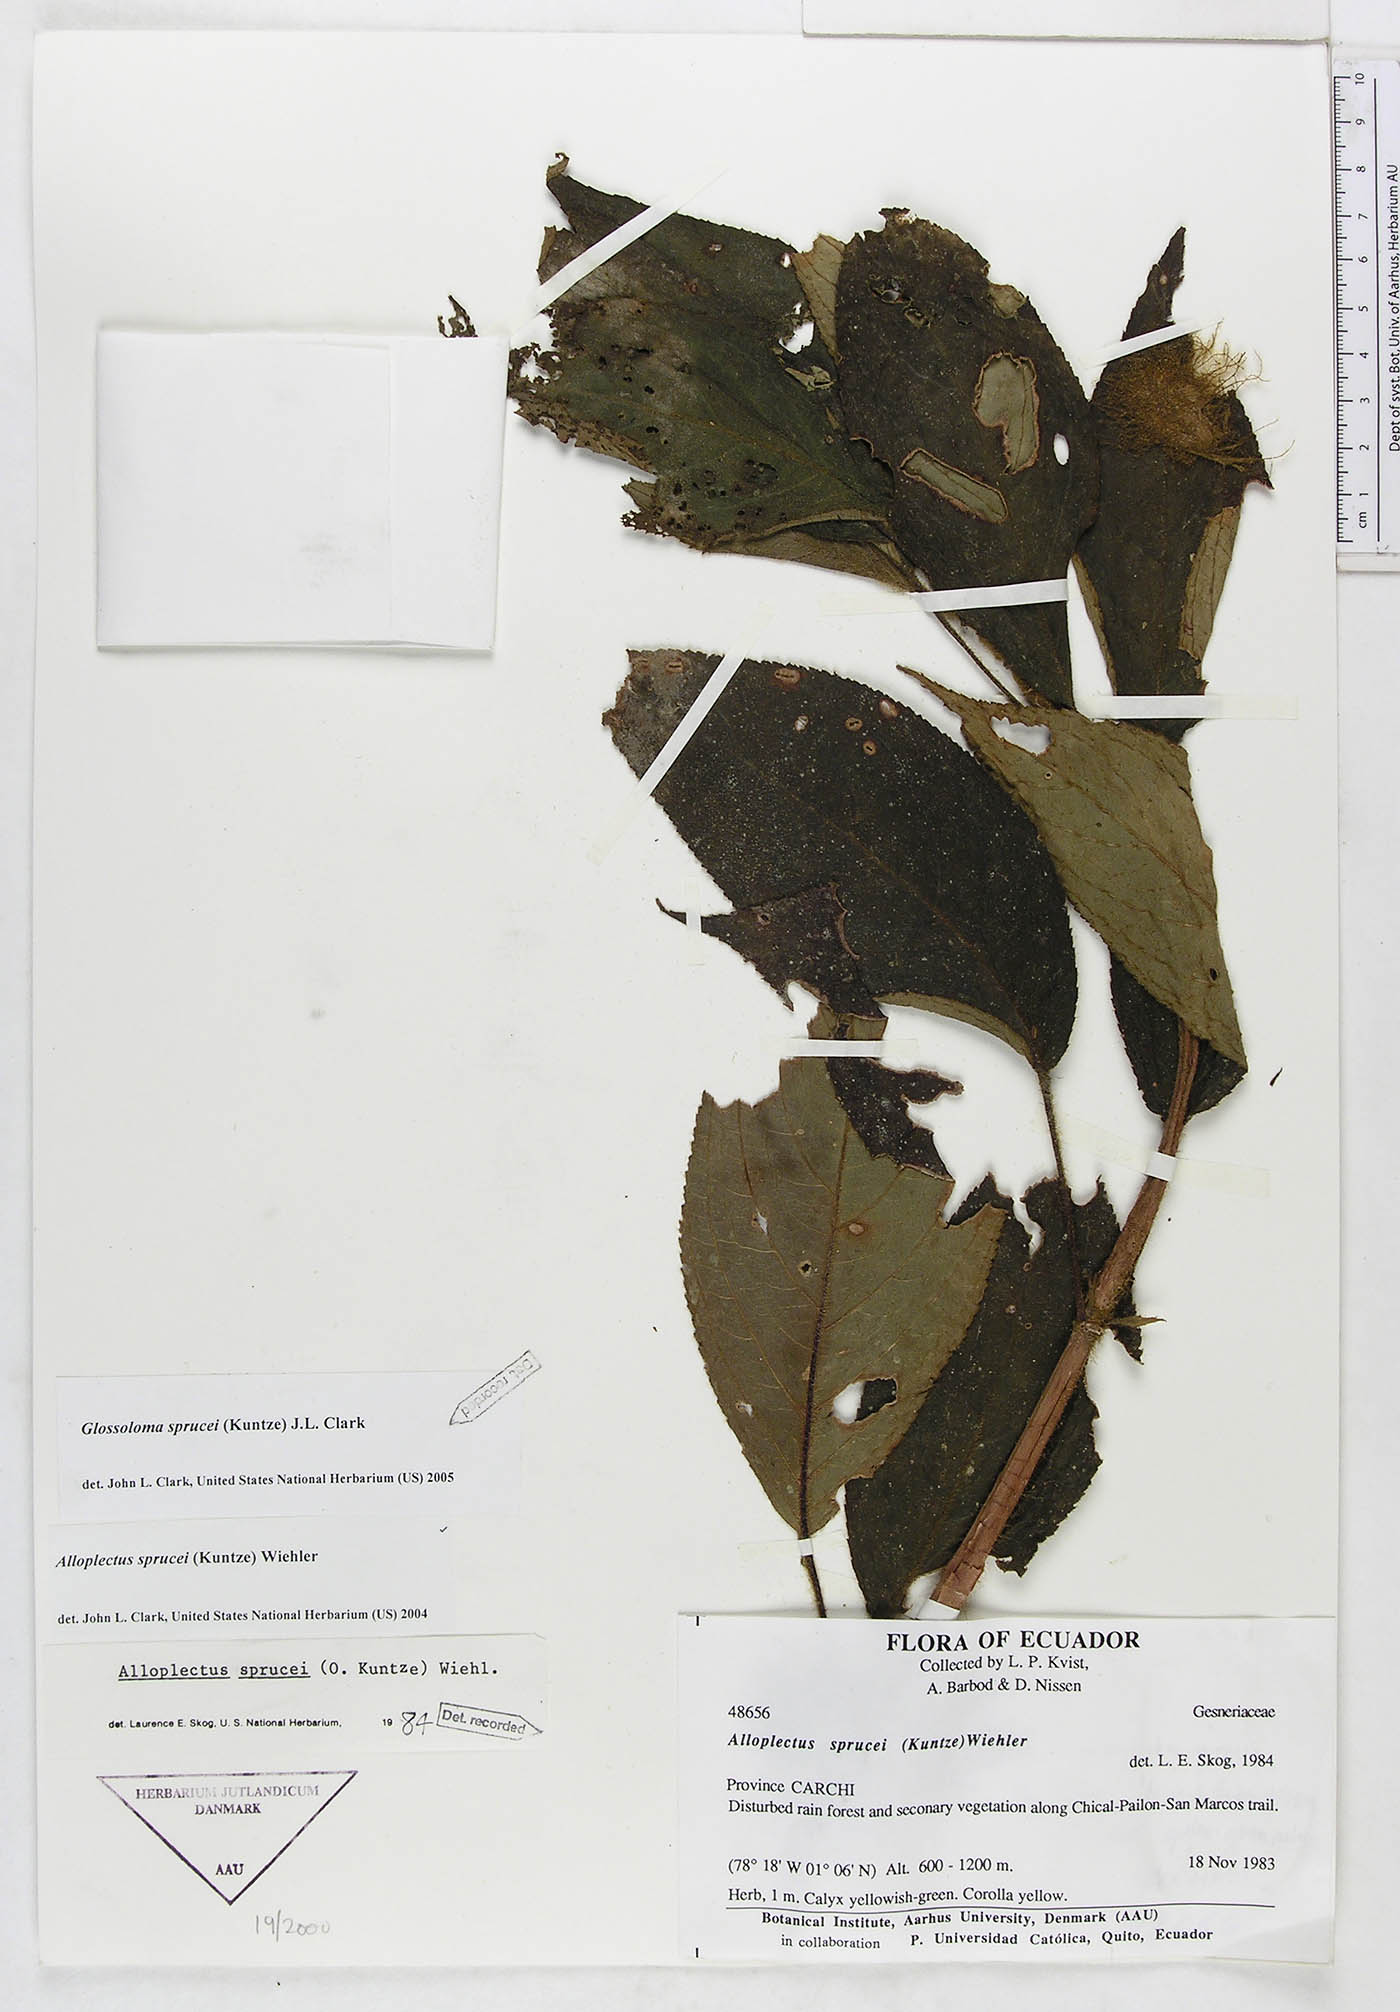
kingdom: Plantae
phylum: Tracheophyta
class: Magnoliopsida
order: Lamiales
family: Gesneriaceae
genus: Glossoloma
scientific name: Glossoloma sprucei
